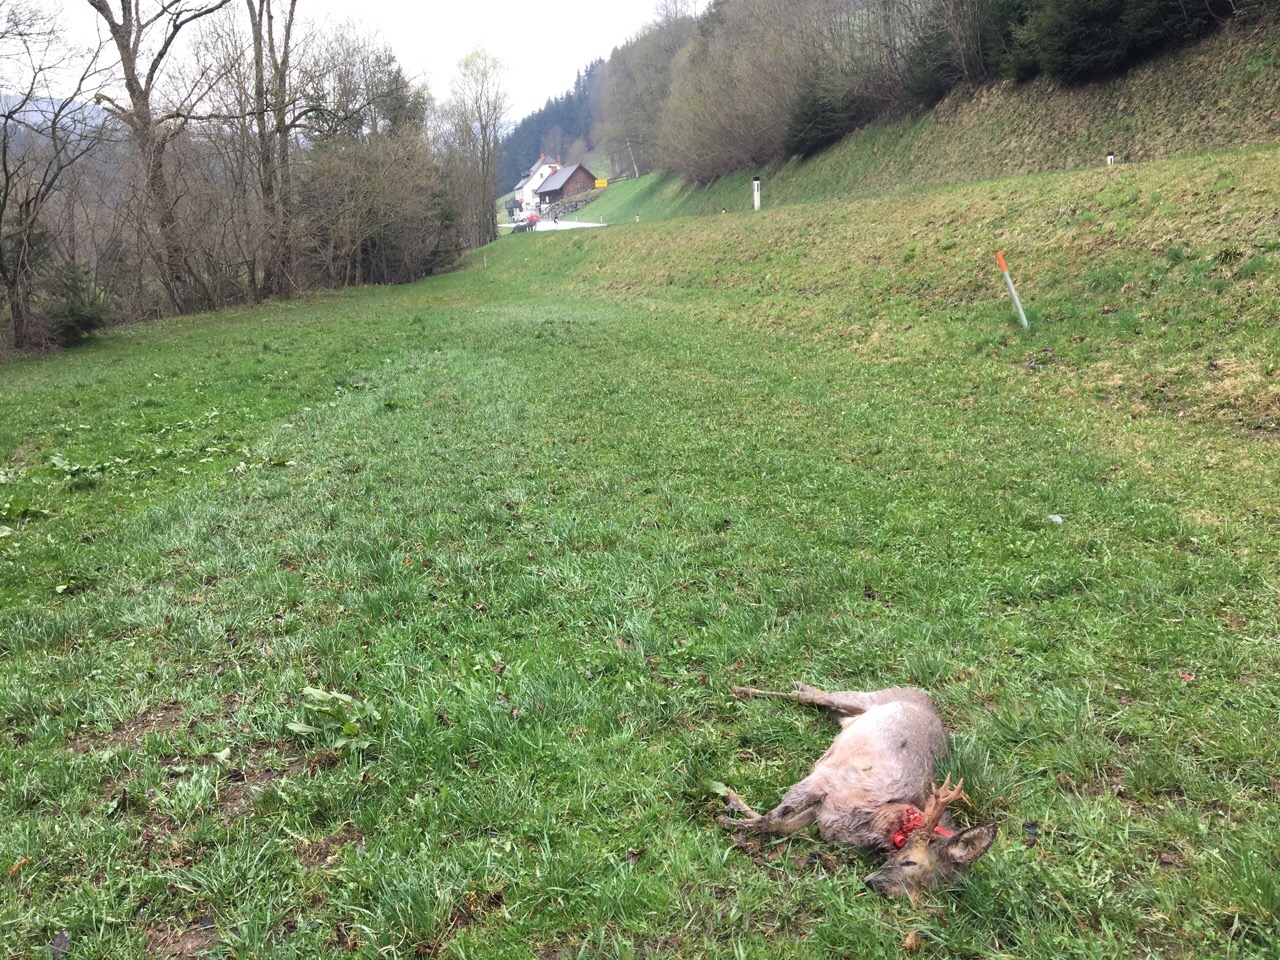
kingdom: Animalia
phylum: Chordata
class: Mammalia
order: Artiodactyla
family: Cervidae
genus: Capreolus
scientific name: Capreolus capreolus
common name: Western roe deer
